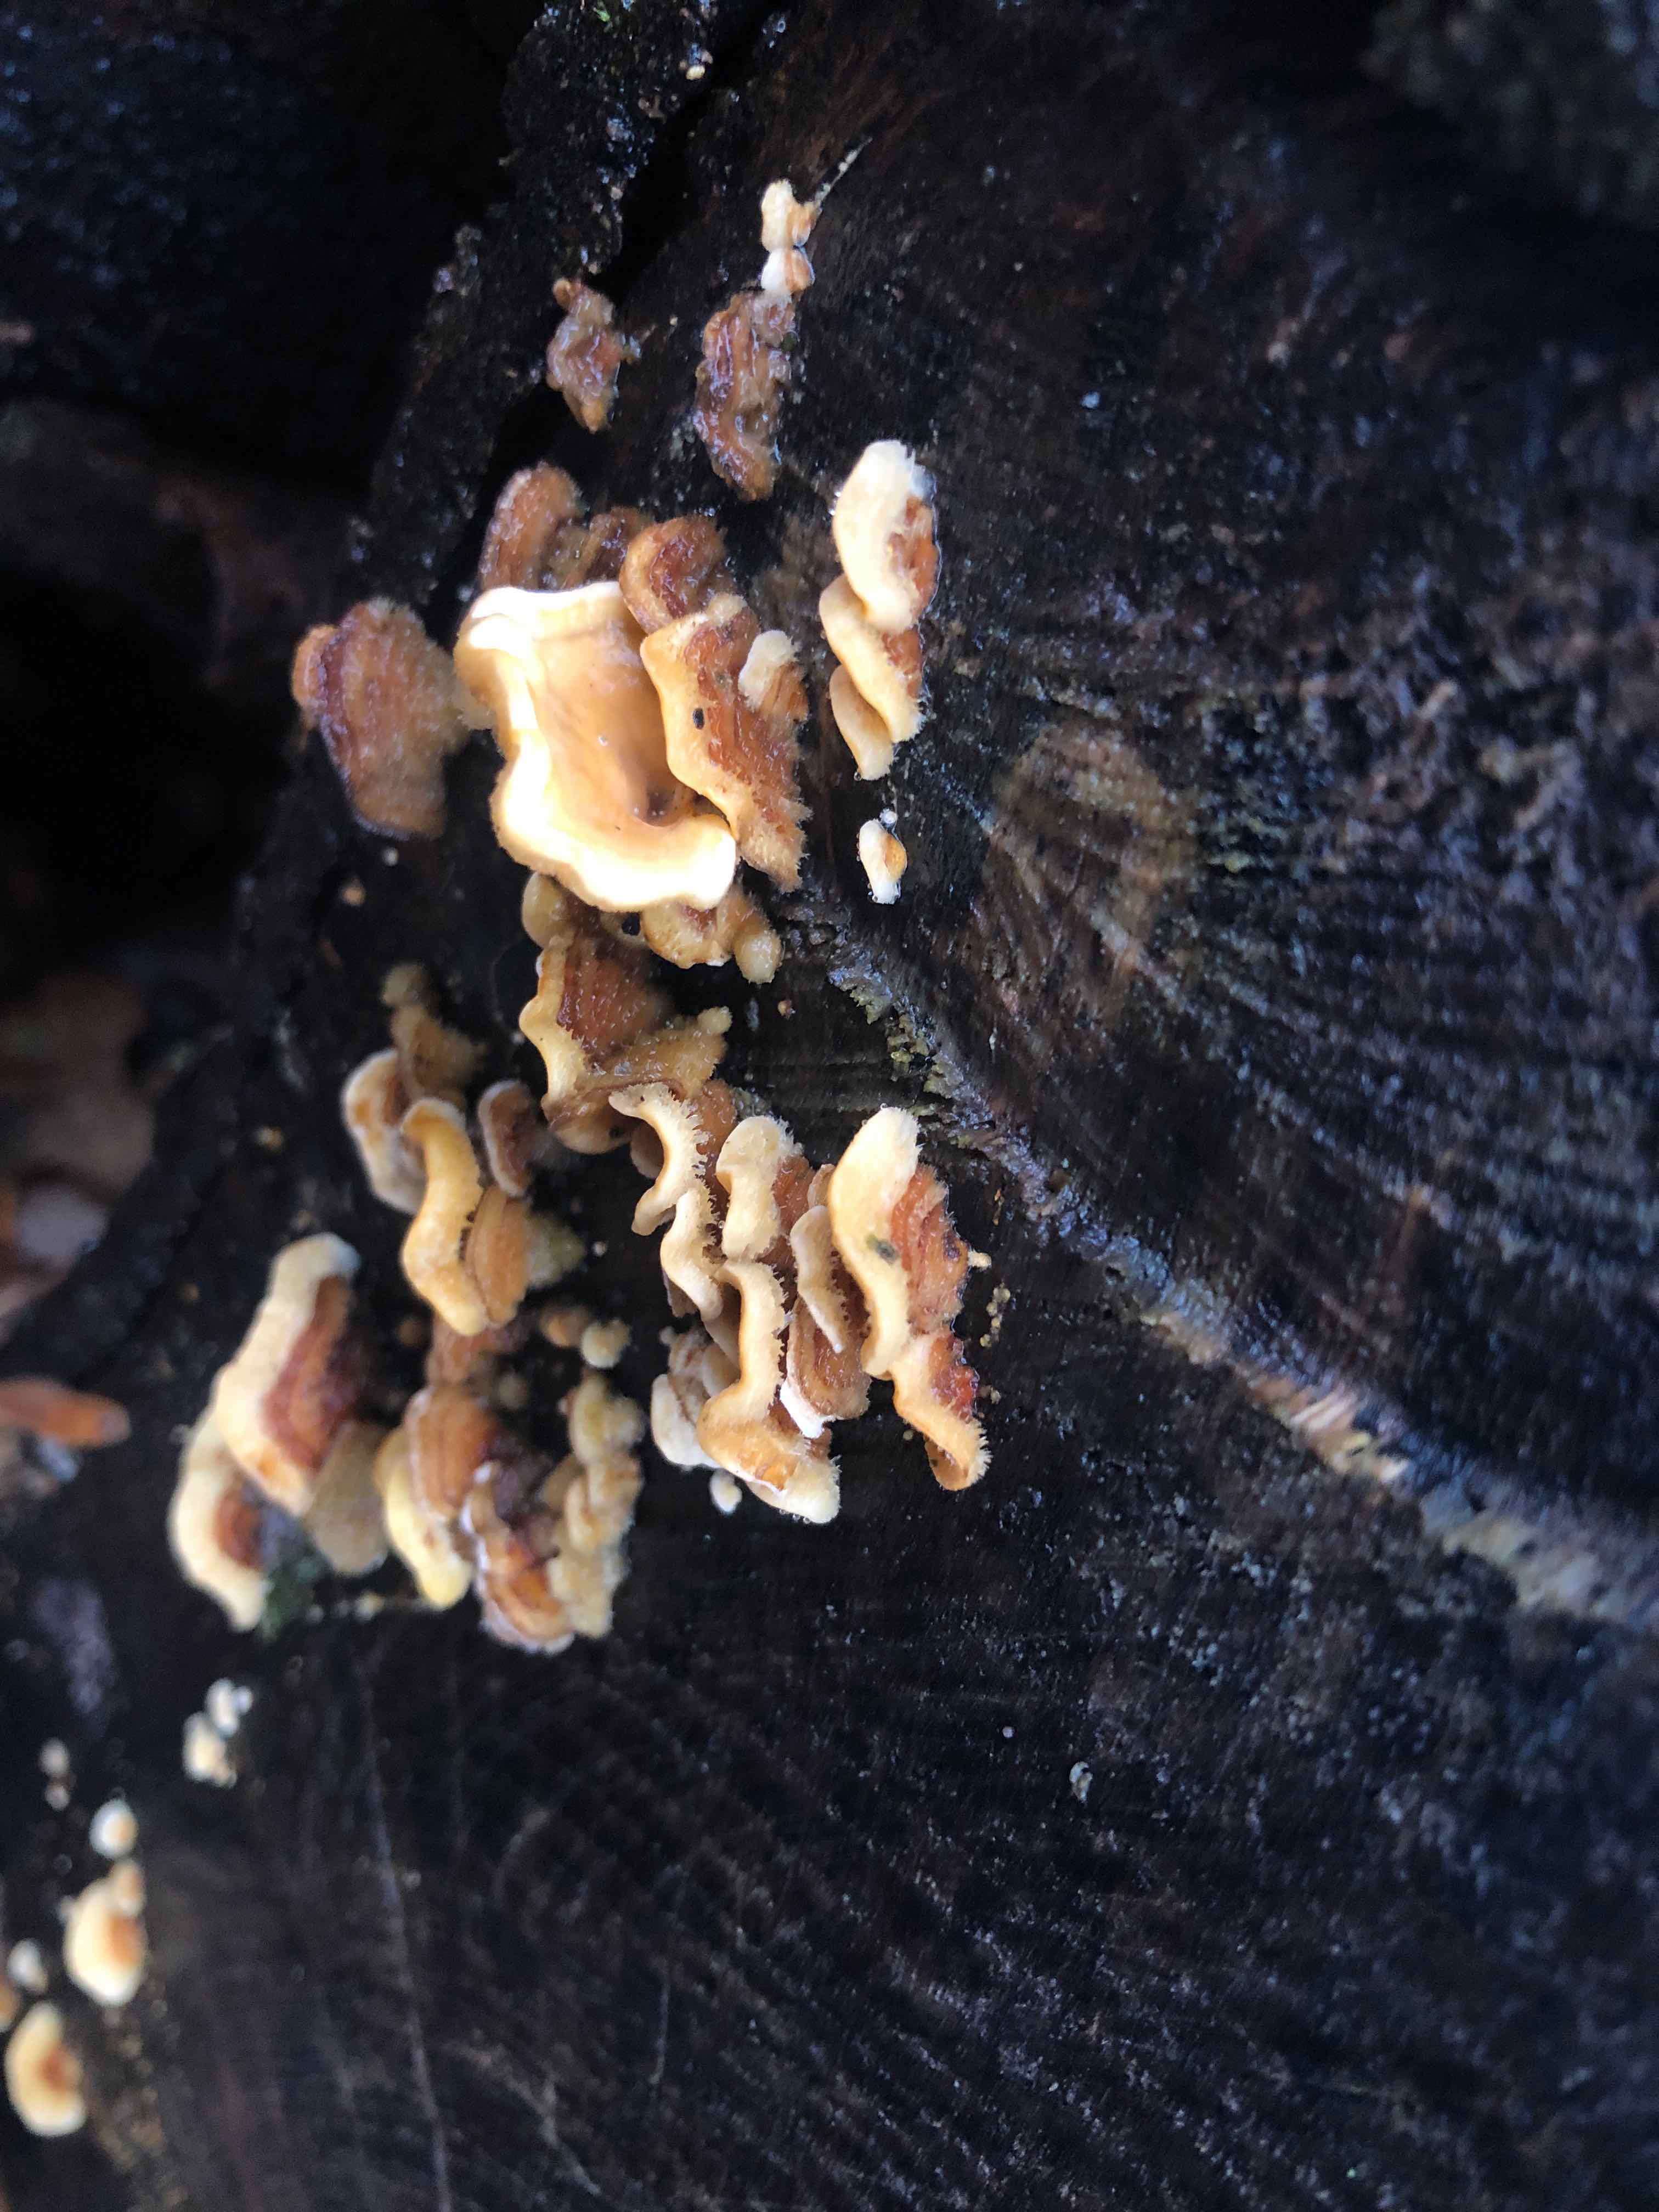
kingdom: Fungi
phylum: Basidiomycota
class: Agaricomycetes
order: Russulales
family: Stereaceae
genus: Stereum
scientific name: Stereum hirsutum
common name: håret lædersvamp
